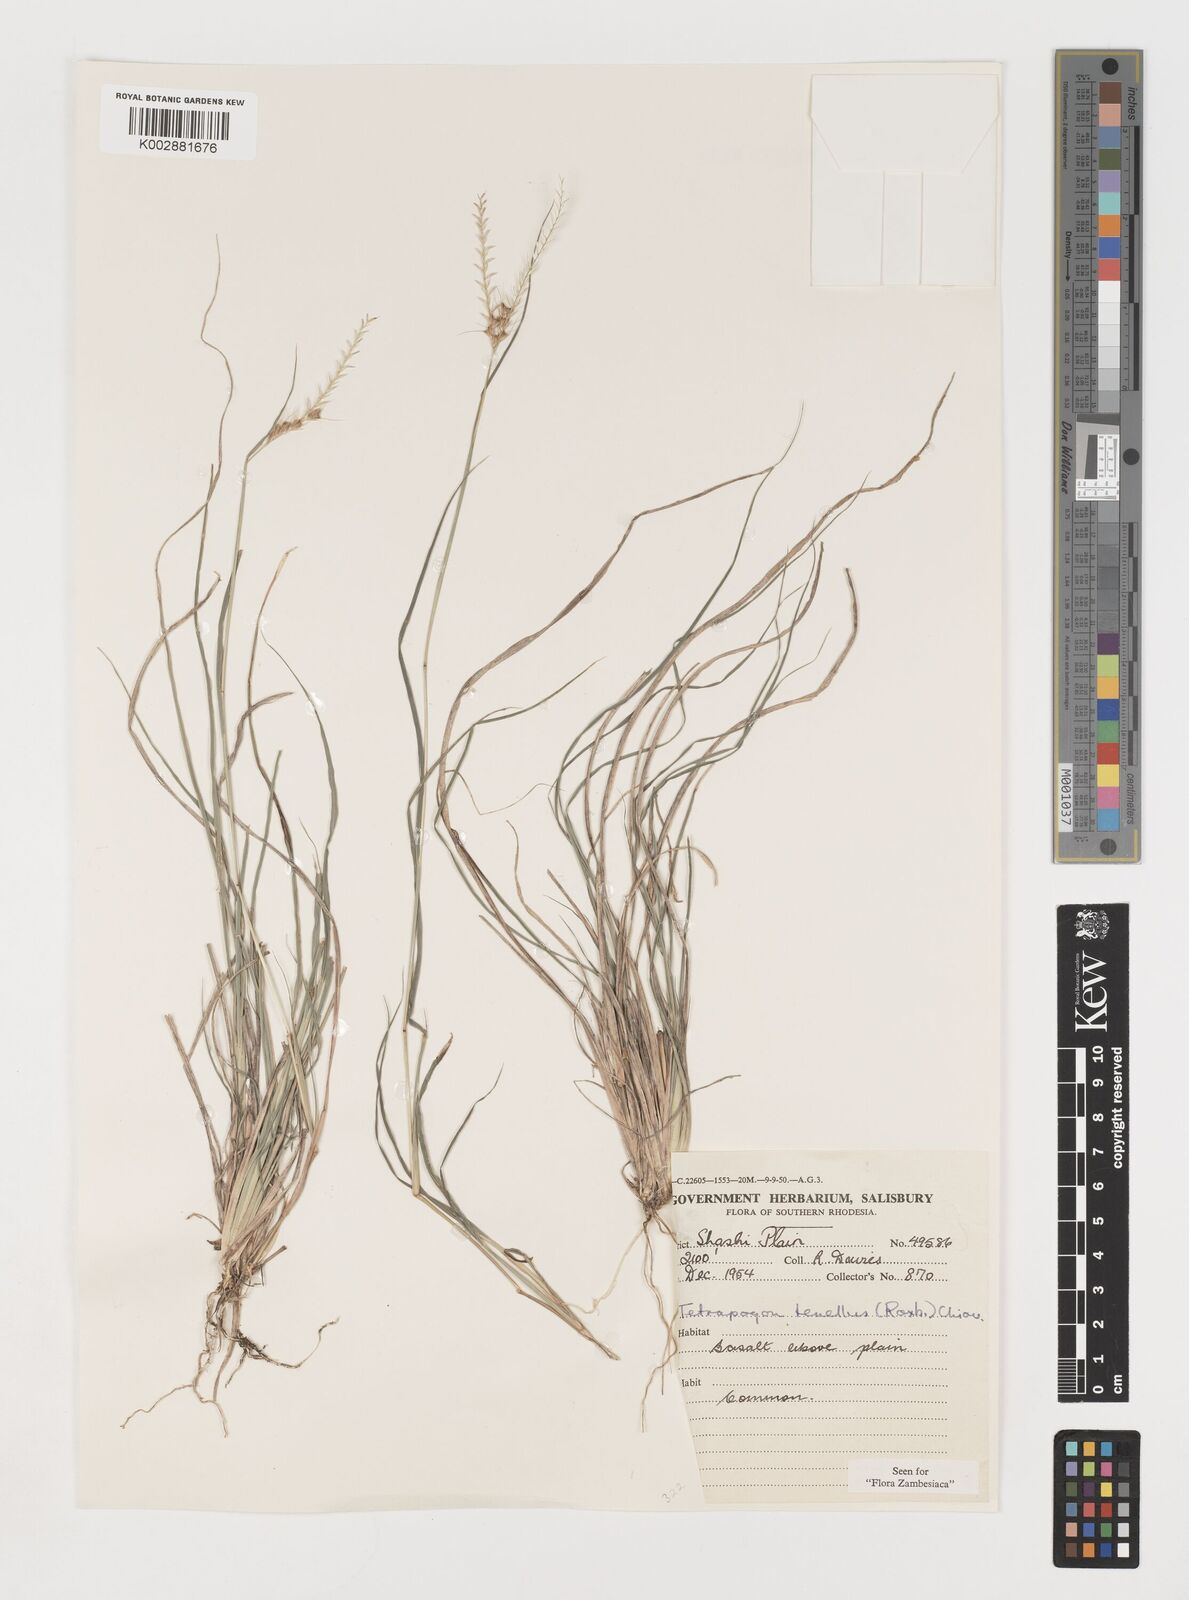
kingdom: Plantae
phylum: Tracheophyta
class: Liliopsida
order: Poales
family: Poaceae
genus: Tetrapogon
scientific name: Tetrapogon tenellus
